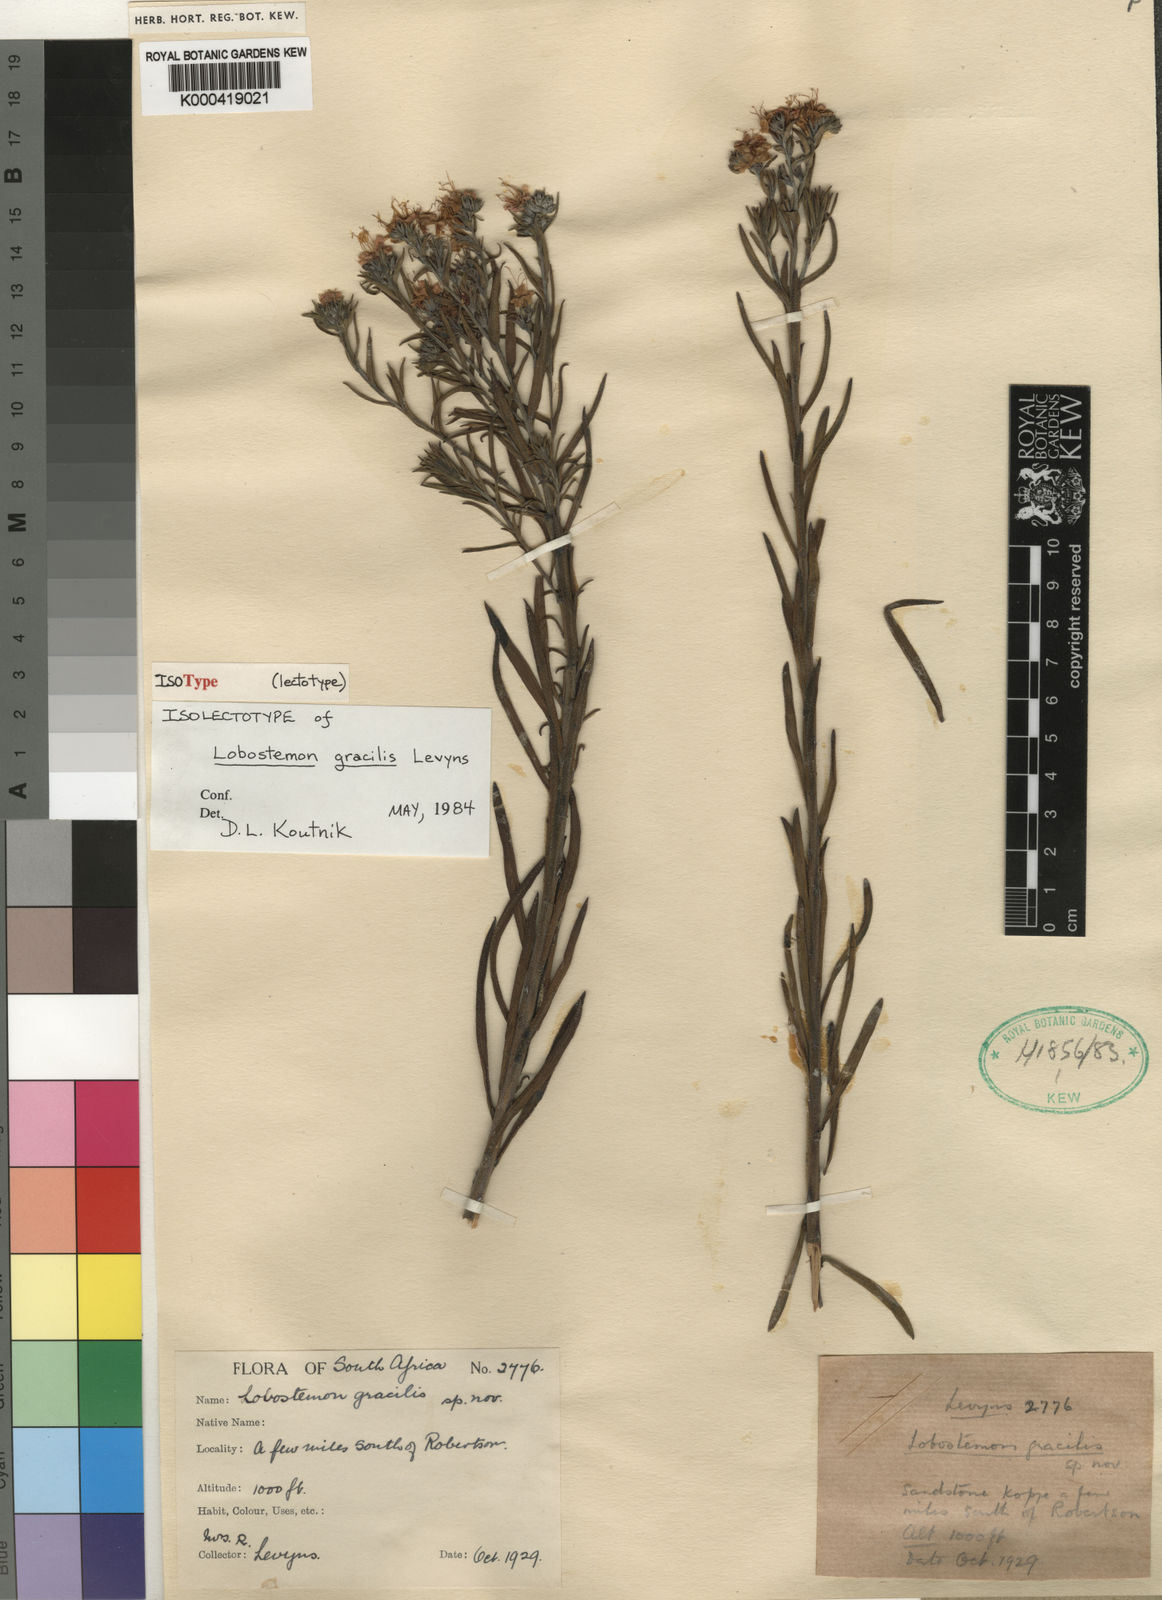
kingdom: Plantae
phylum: Tracheophyta
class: Magnoliopsida
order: Boraginales
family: Boraginaceae
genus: Lobostemon
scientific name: Lobostemon gracilis
